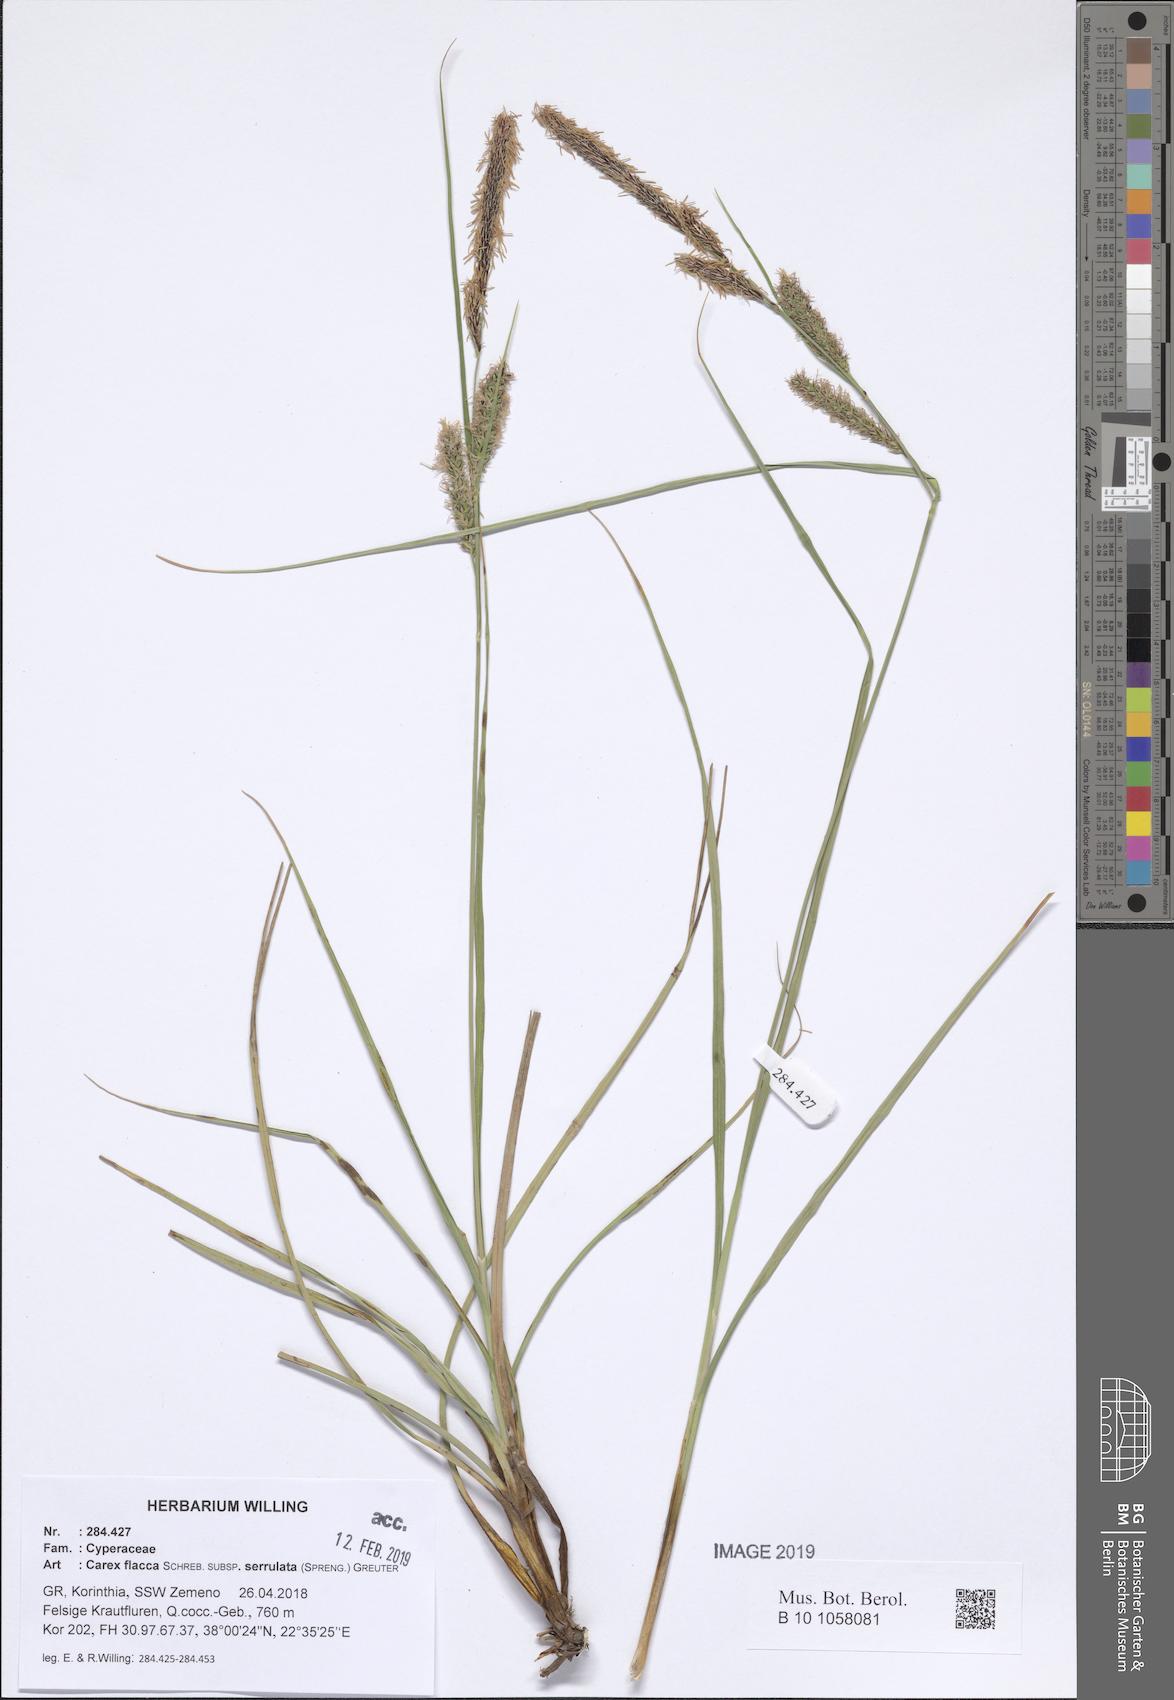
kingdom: Plantae
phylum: Tracheophyta
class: Liliopsida
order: Poales
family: Cyperaceae
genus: Carex
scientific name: Carex flacca
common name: Glaucous sedge
